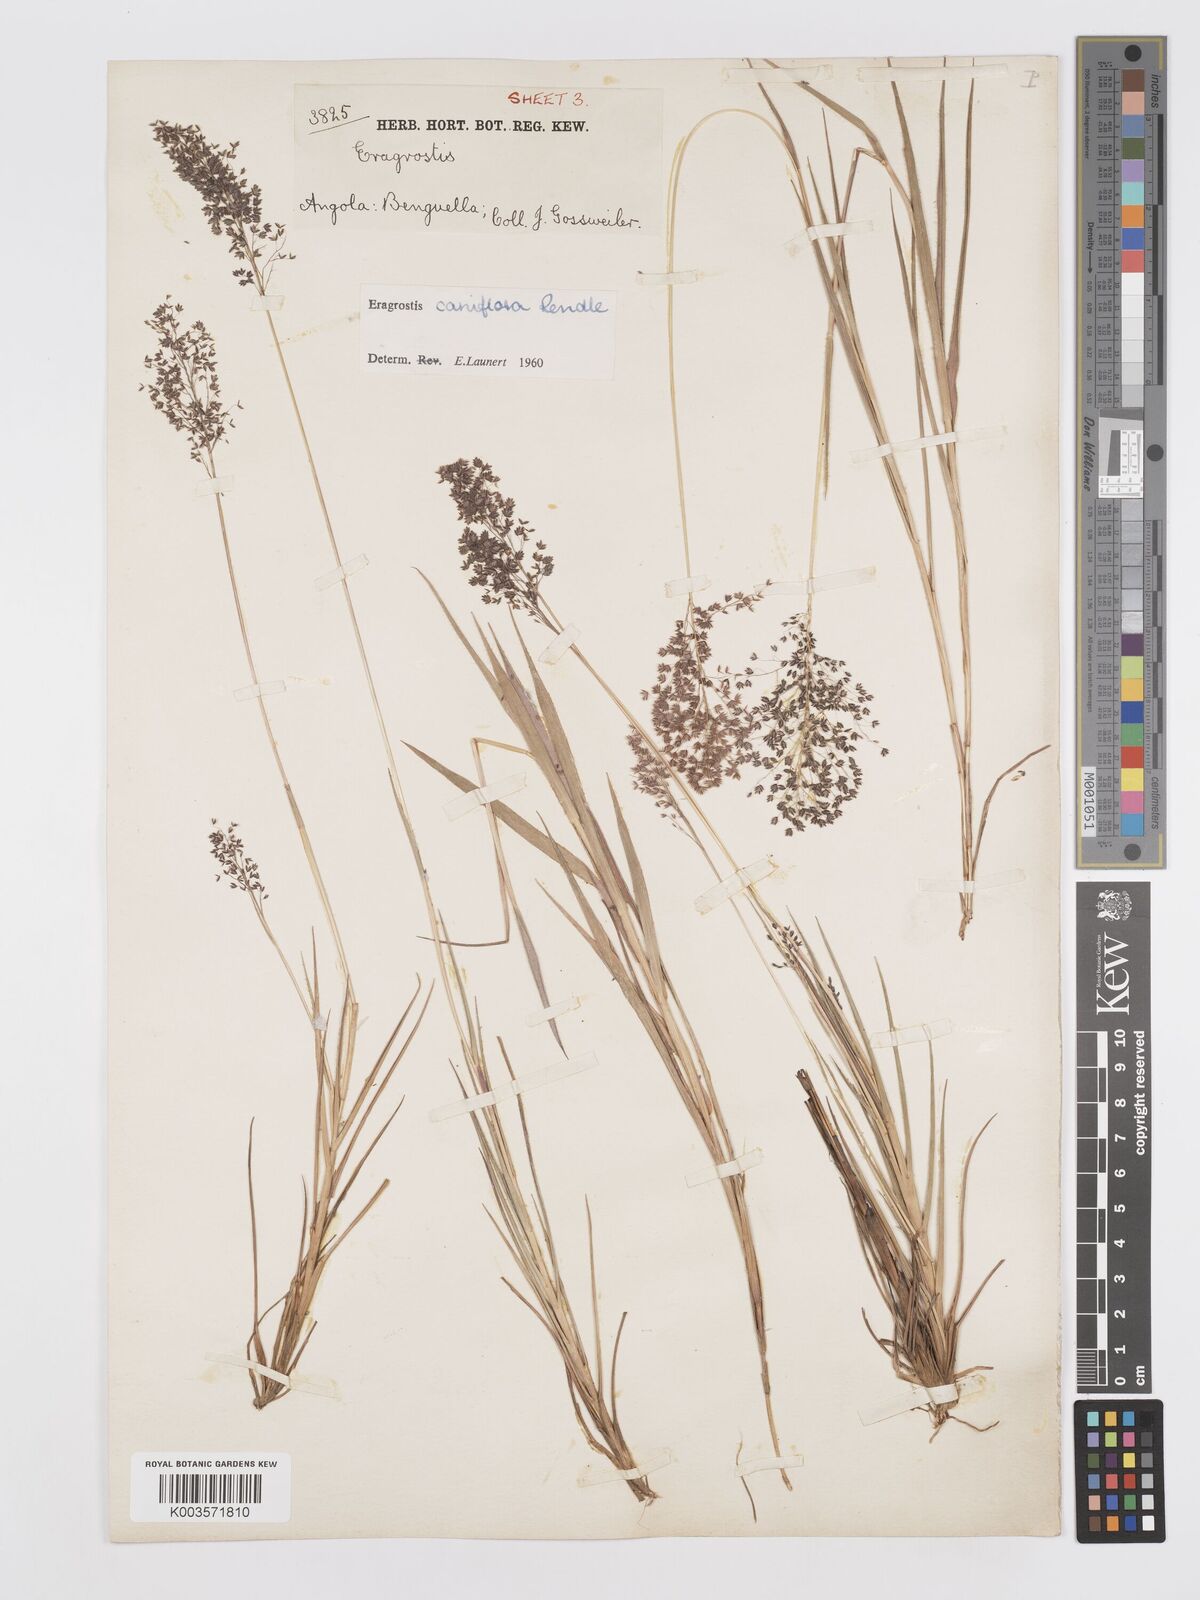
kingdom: Plantae
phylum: Tracheophyta
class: Liliopsida
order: Poales
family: Poaceae
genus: Eragrostis
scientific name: Eragrostis caniflora
